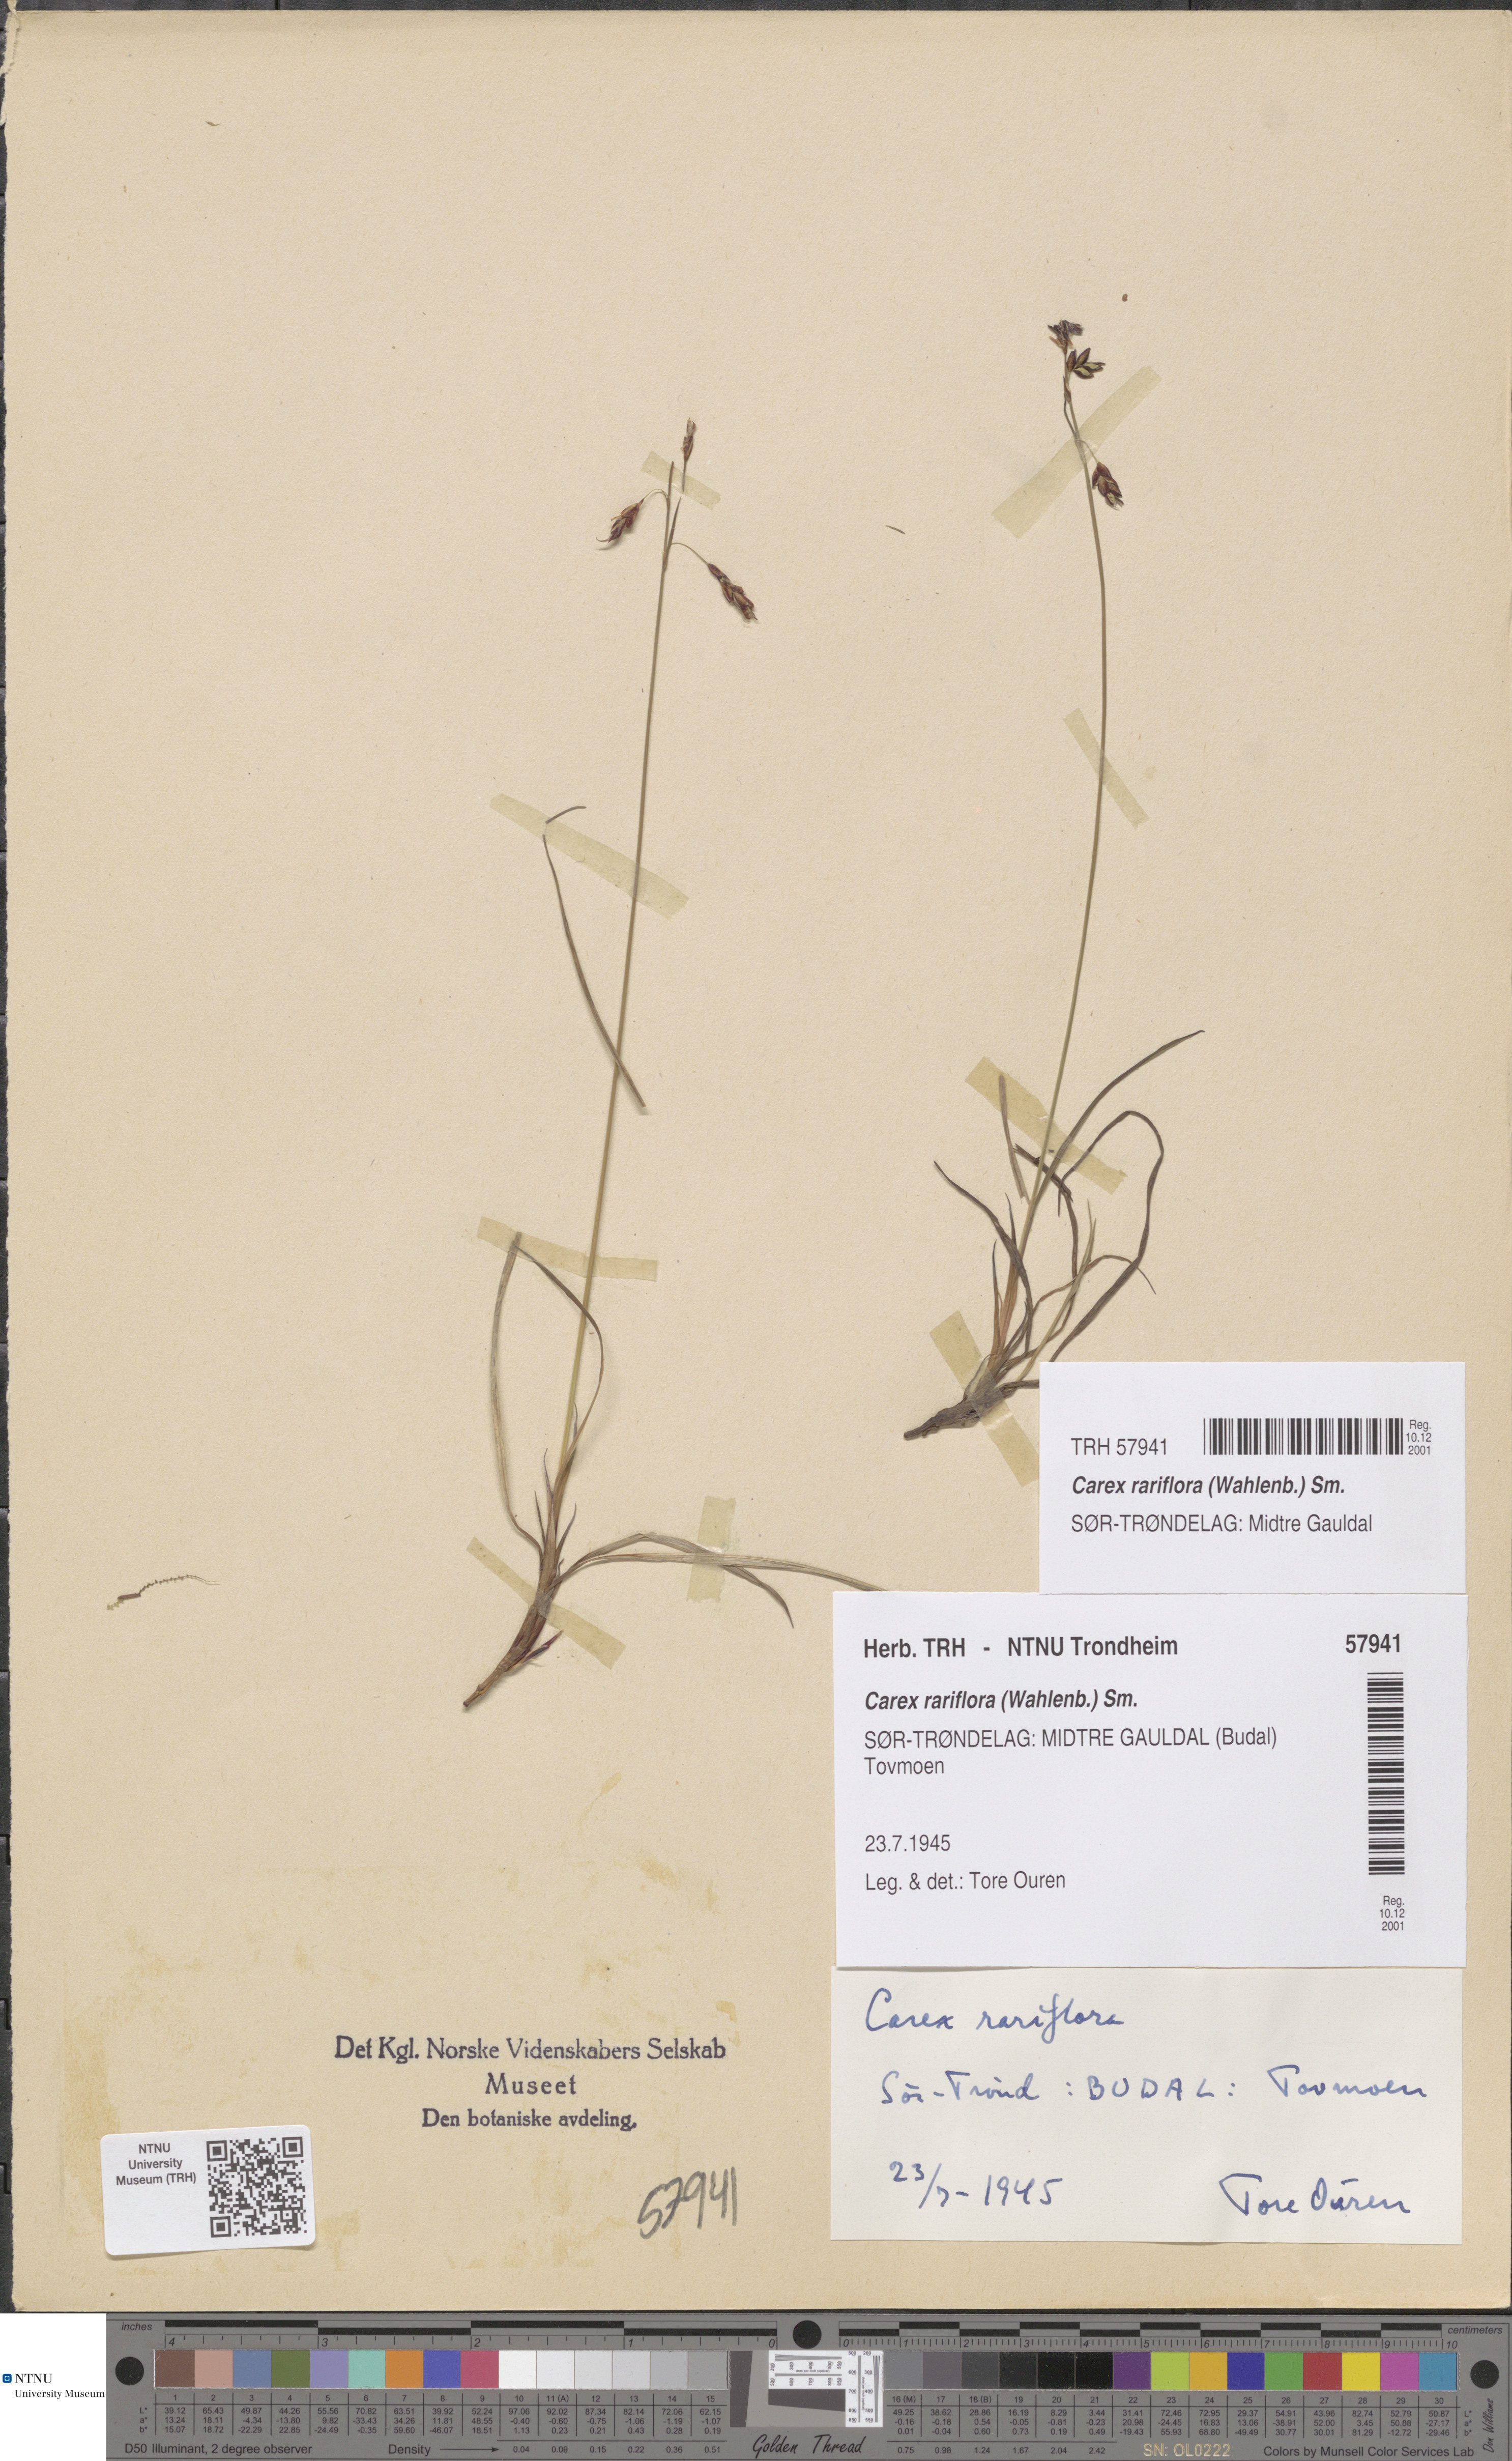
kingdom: Plantae
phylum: Tracheophyta
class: Liliopsida
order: Poales
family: Cyperaceae
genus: Carex
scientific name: Carex rariflora
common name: Loose-flowered alpine sedge
